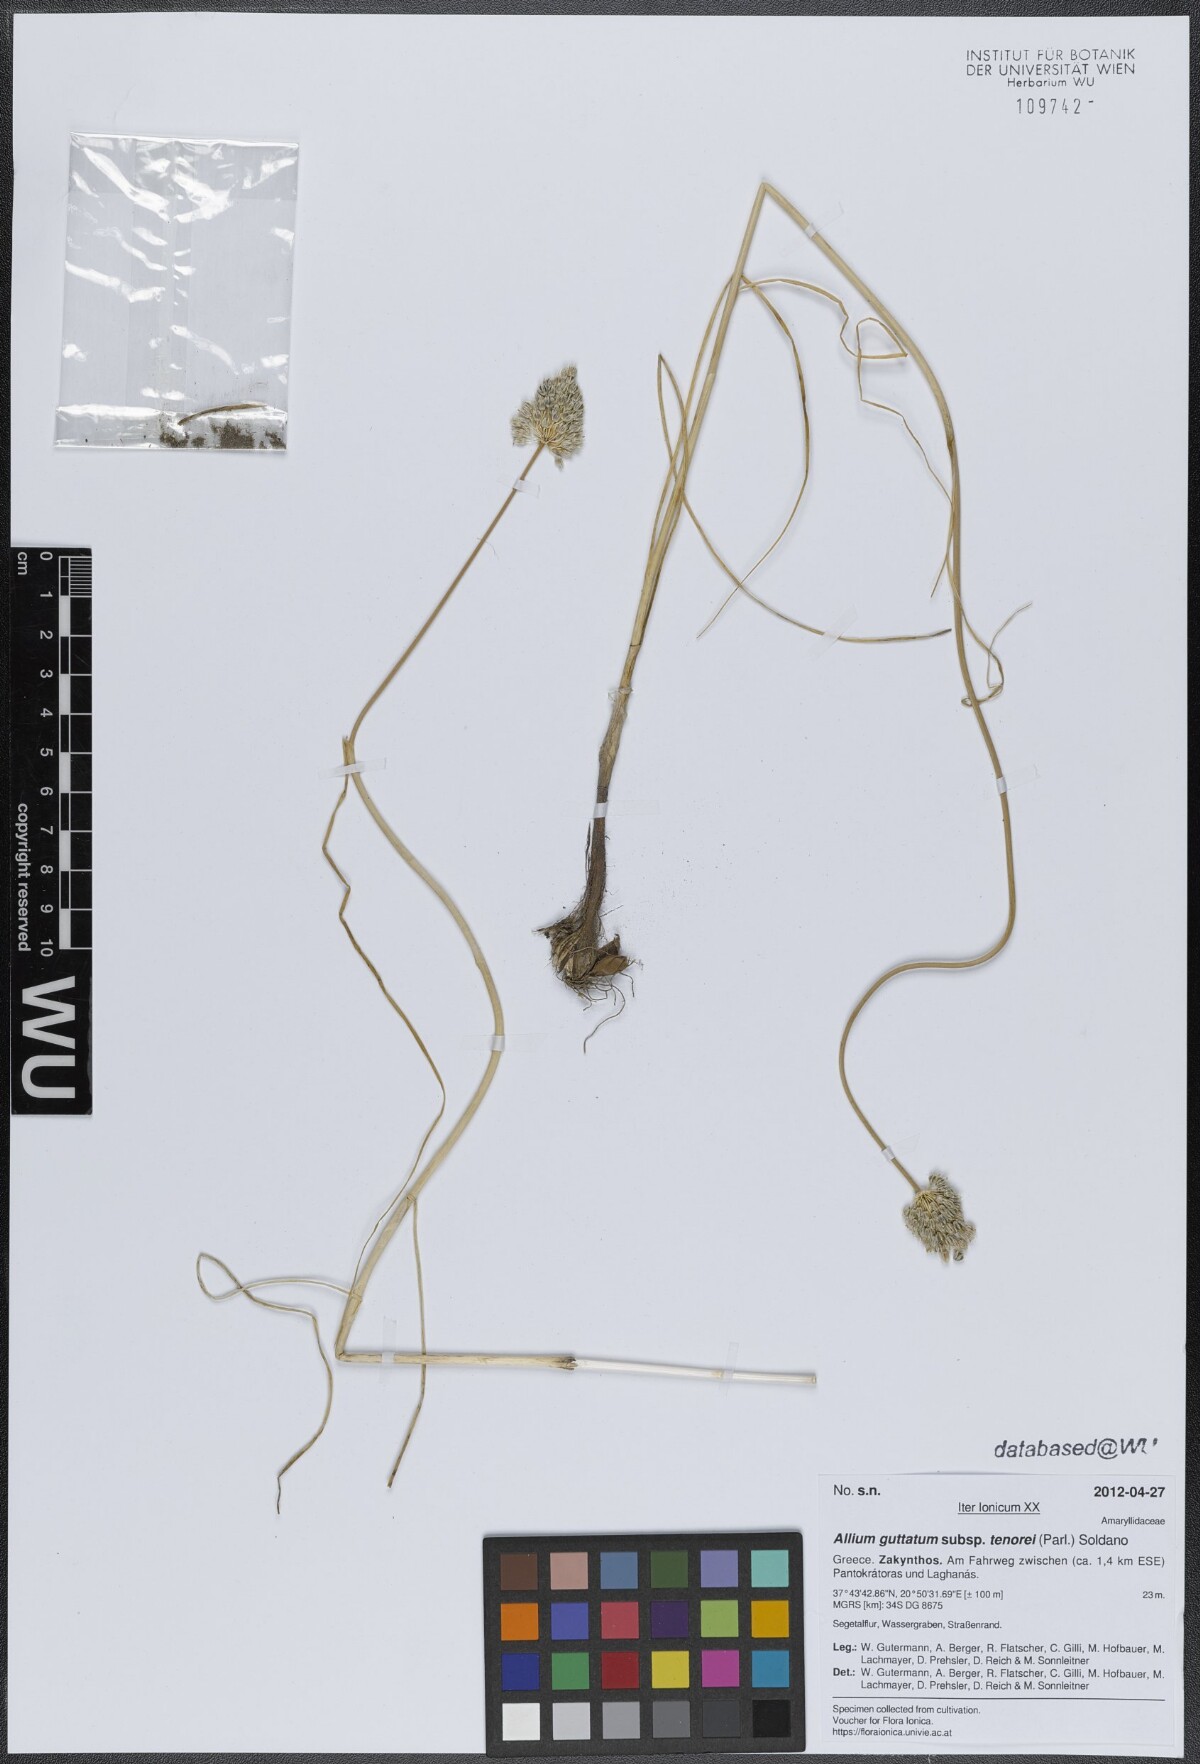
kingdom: Plantae
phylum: Tracheophyta
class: Liliopsida
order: Asparagales
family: Amaryllidaceae
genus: Allium
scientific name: Allium sardoum
